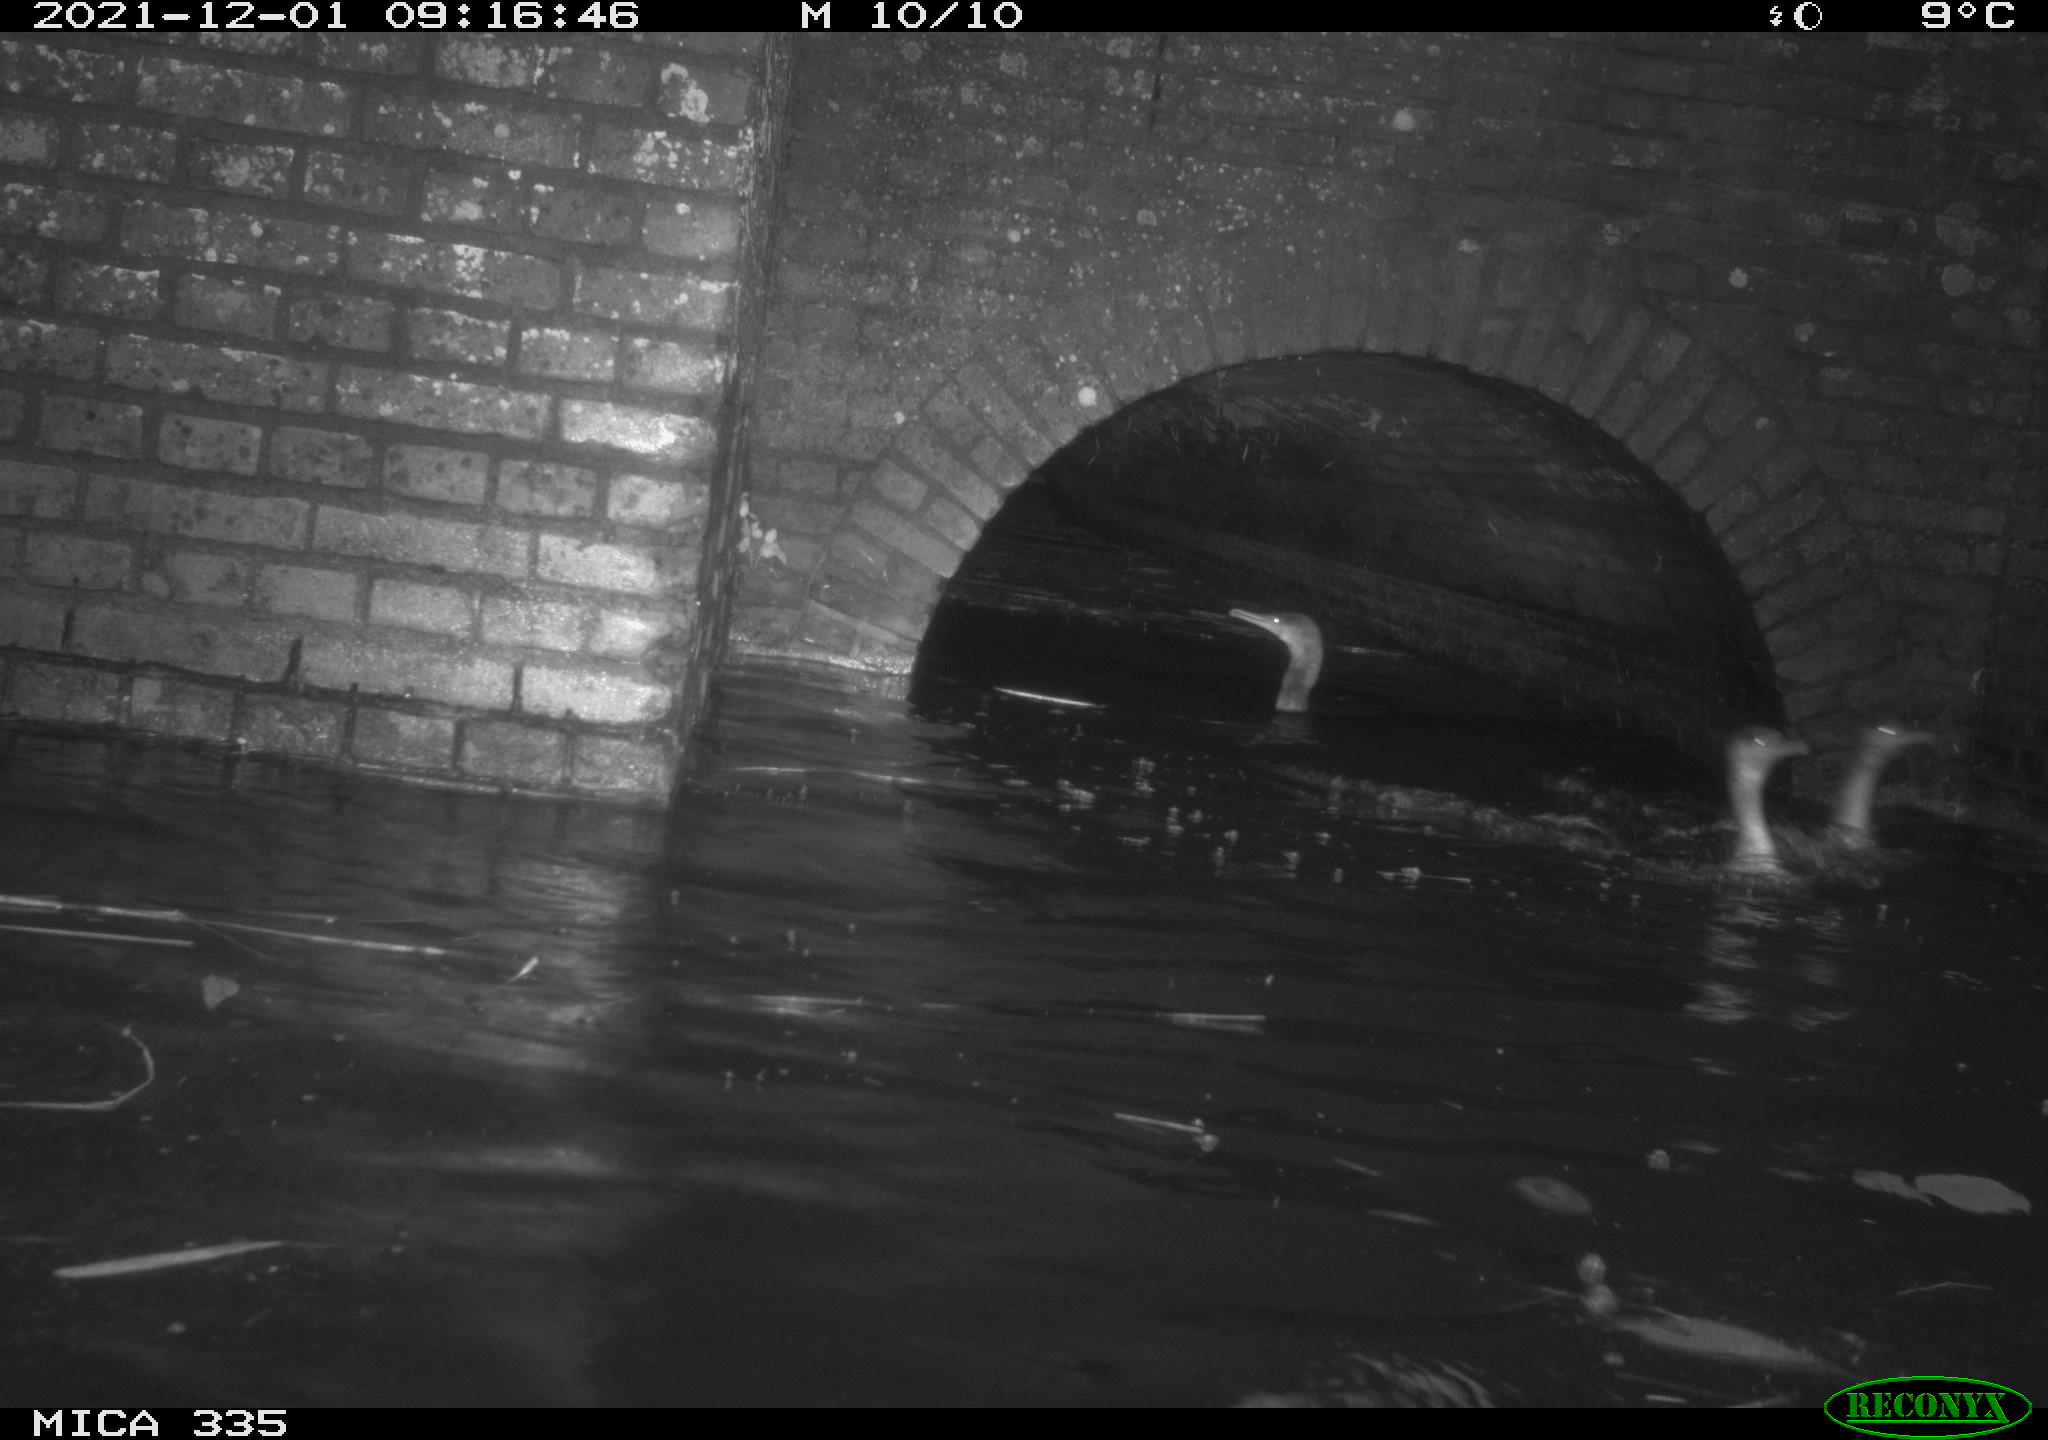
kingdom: Animalia
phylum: Chordata
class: Aves
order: Suliformes
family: Phalacrocoracidae
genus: Phalacrocorax
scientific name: Phalacrocorax carbo
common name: Great cormorant
